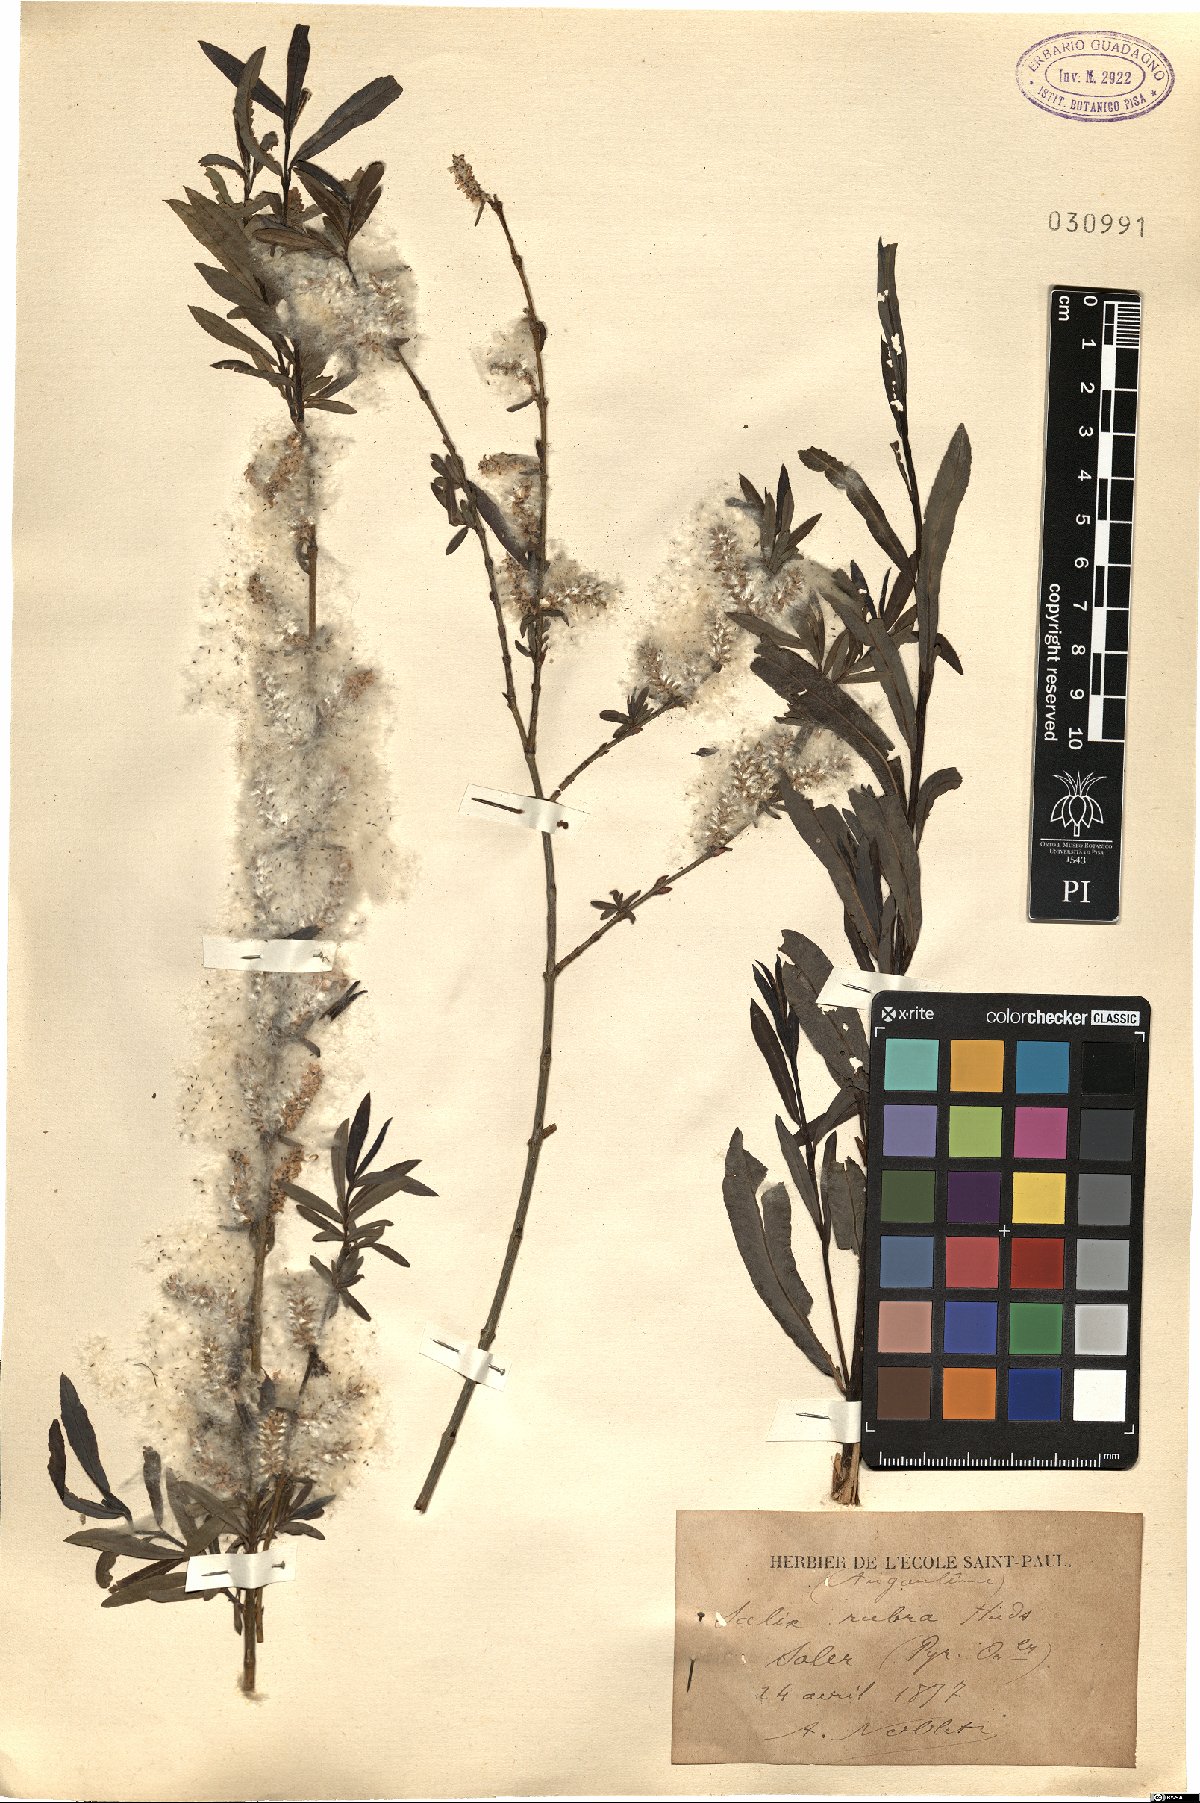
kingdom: Plantae
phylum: Tracheophyta
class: Magnoliopsida
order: Malpighiales
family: Salicaceae
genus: Salix
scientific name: Salix rubra
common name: Green-leaf willow
